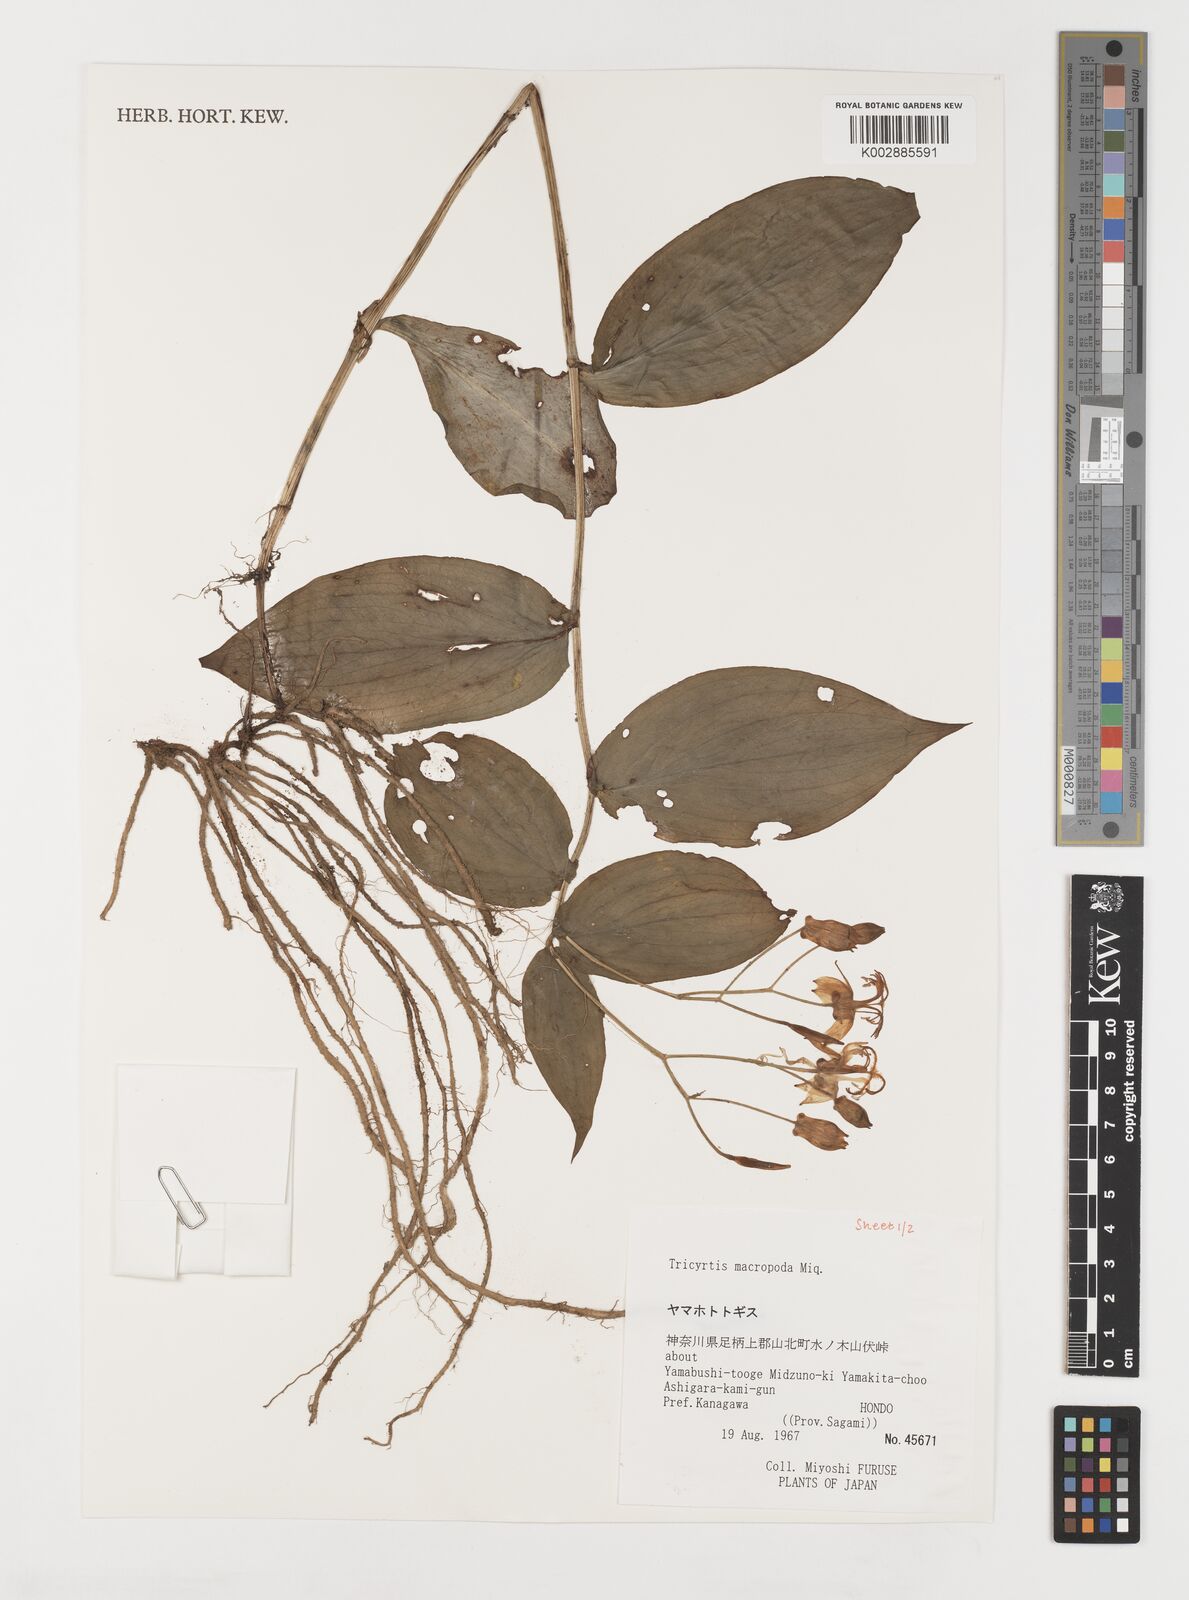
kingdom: Plantae
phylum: Tracheophyta
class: Liliopsida
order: Liliales
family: Liliaceae
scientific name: Liliaceae
